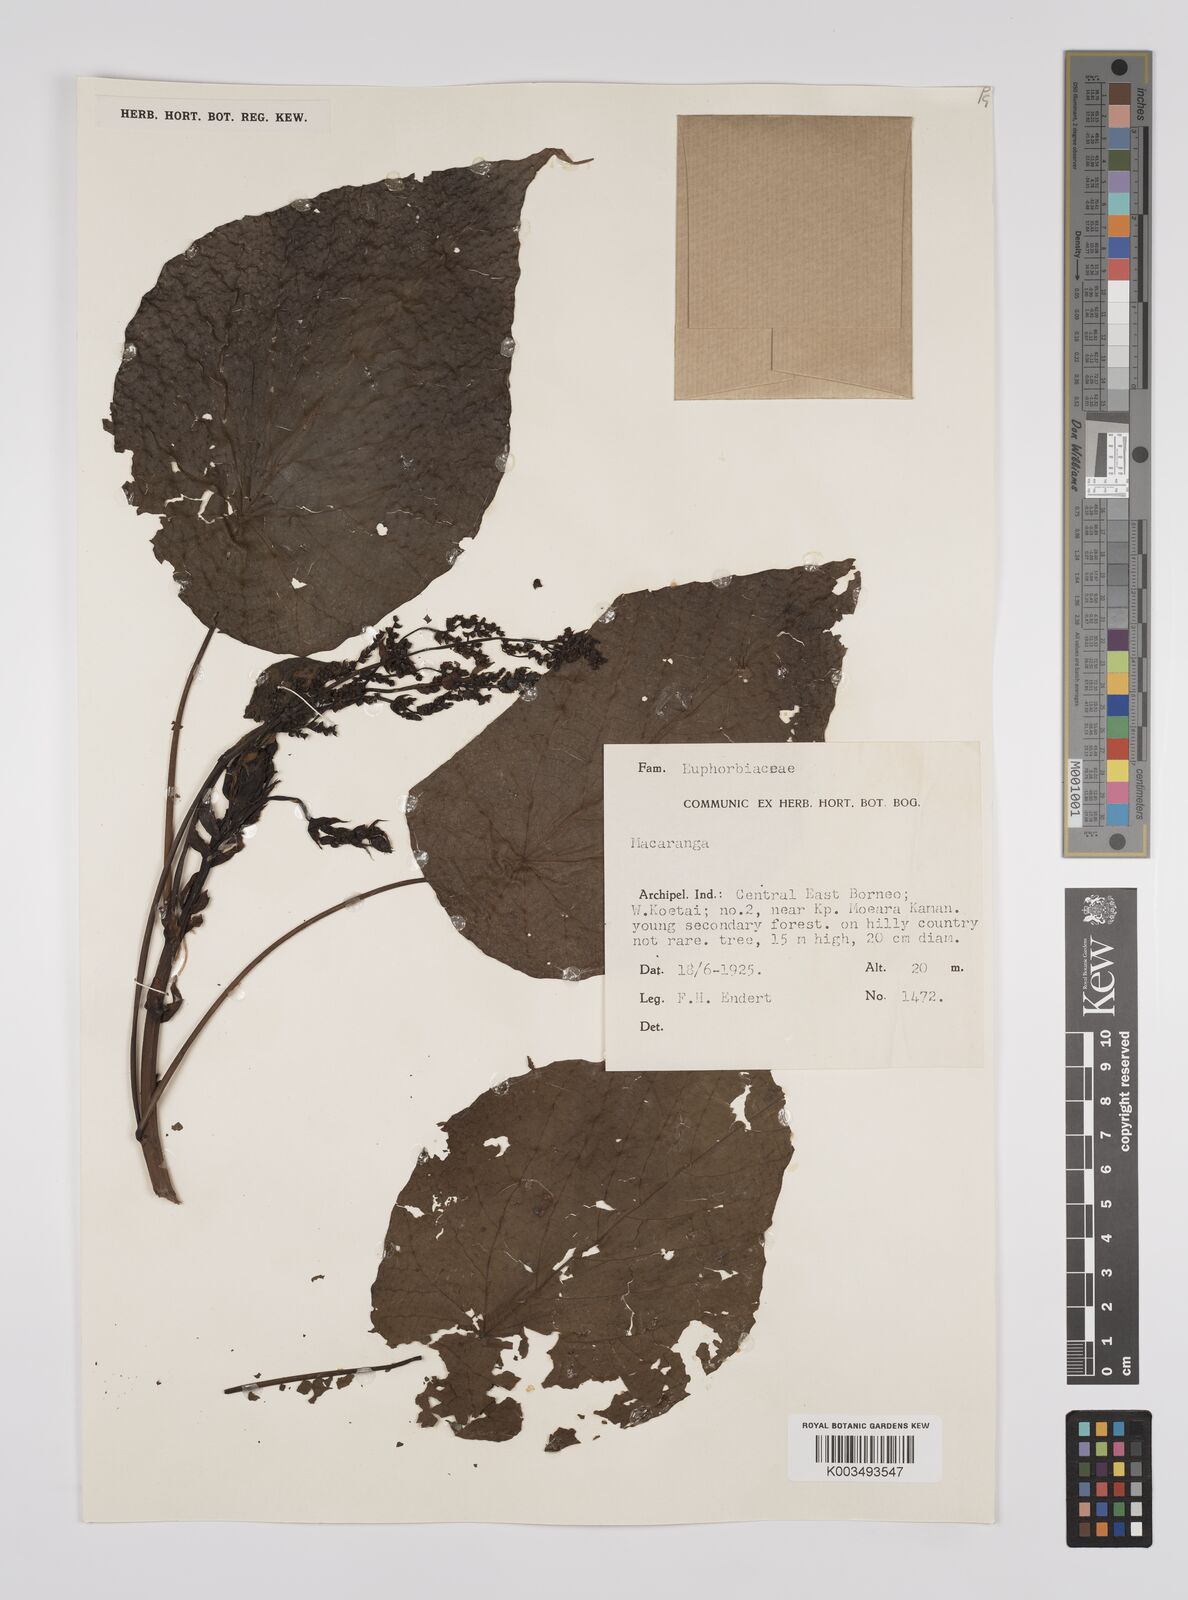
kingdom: Plantae
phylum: Tracheophyta
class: Magnoliopsida
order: Malpighiales
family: Euphorbiaceae
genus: Macaranga
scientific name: Macaranga tanarius
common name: Parasol leaf tree
